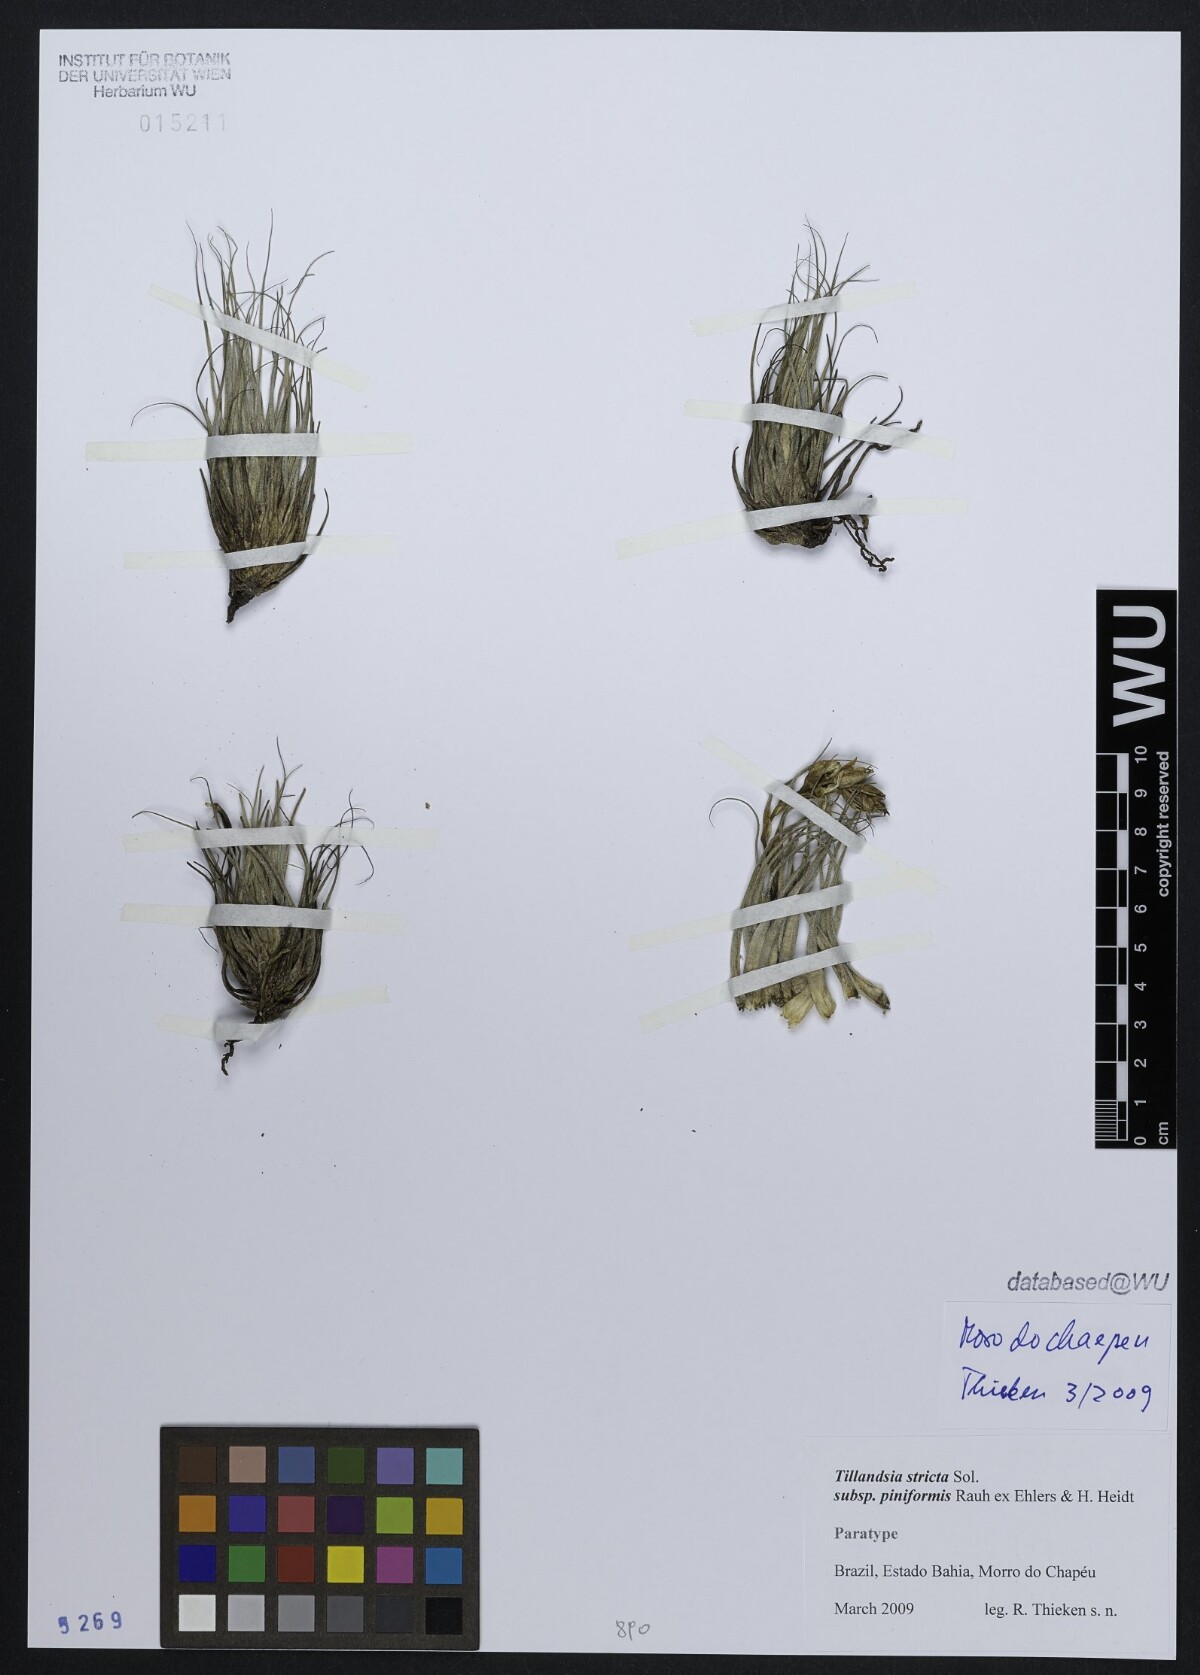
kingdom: Plantae
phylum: Tracheophyta
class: Liliopsida
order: Poales
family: Bromeliaceae
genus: Tillandsia
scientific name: Tillandsia stricta
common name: Airplant
